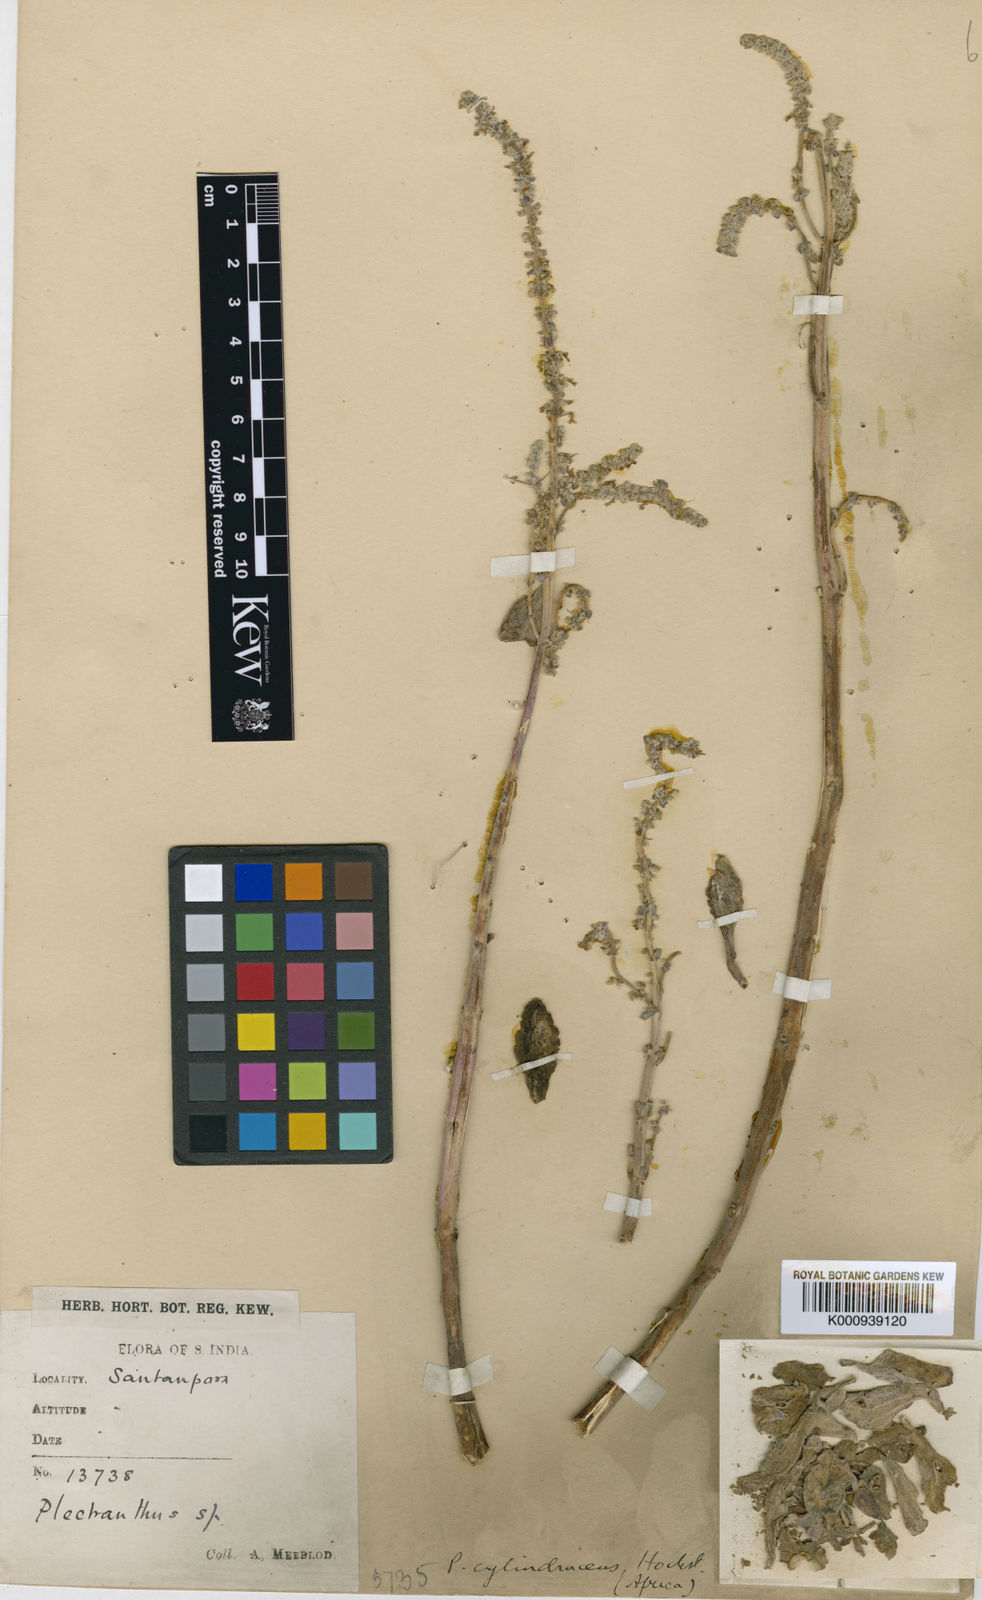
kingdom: Plantae
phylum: Tracheophyta
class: Magnoliopsida
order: Lamiales
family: Lamiaceae
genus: Coleus
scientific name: Coleus cylindraceus
